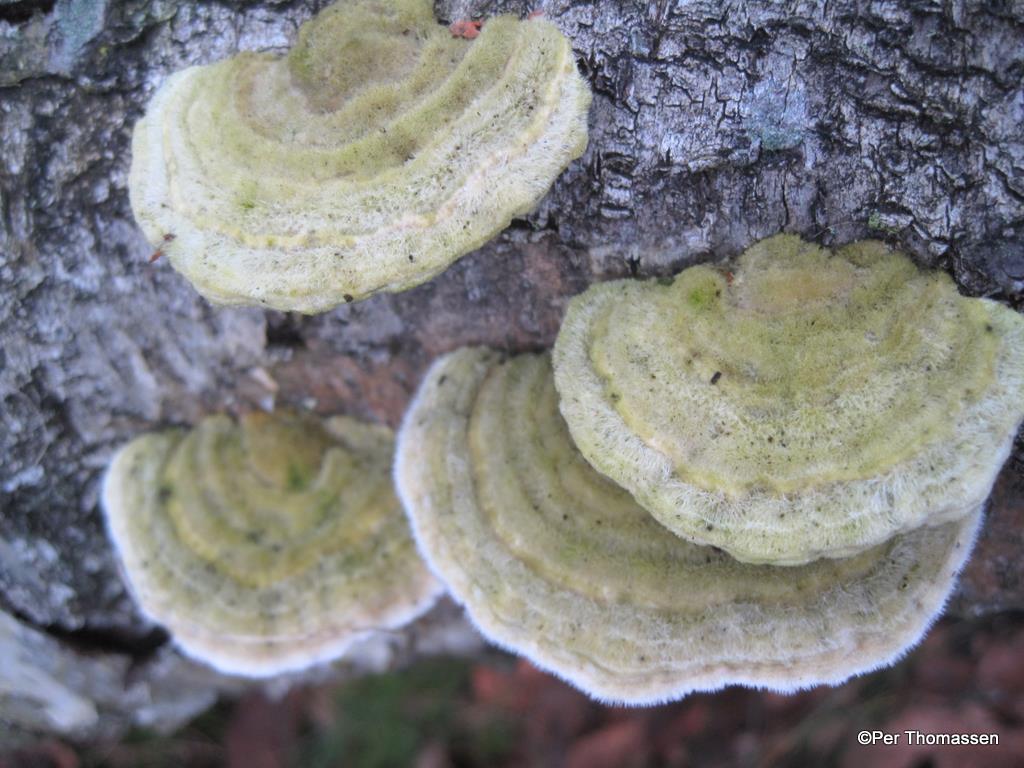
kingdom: Fungi
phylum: Basidiomycota
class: Agaricomycetes
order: Polyporales
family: Polyporaceae
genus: Trametes
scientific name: Trametes hirsuta
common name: håret læderporesvamp
